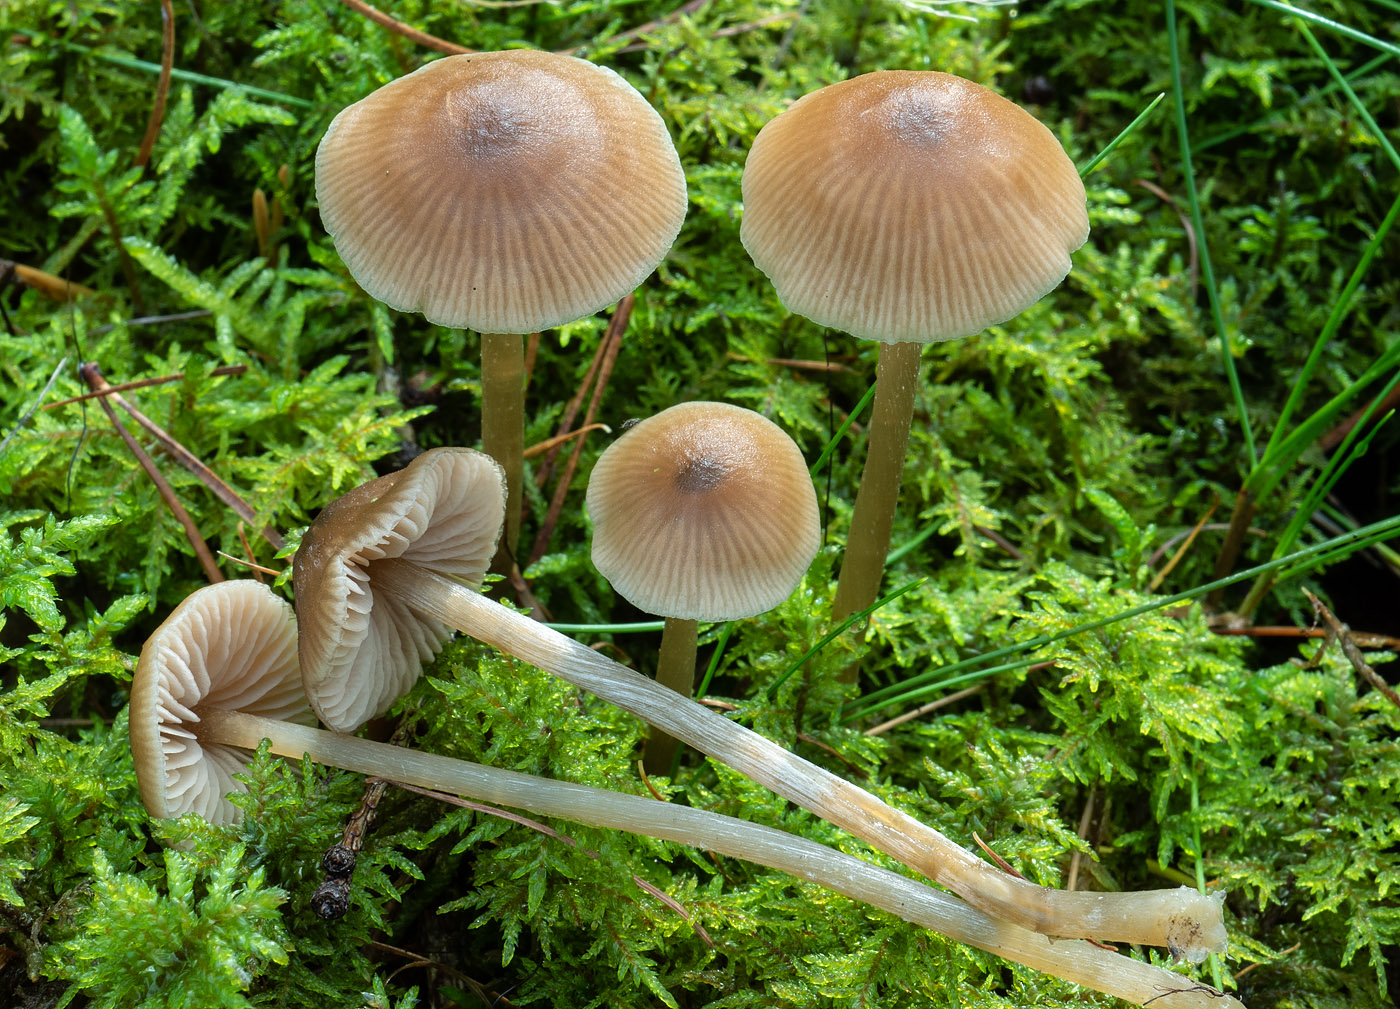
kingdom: Fungi
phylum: Basidiomycota
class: Agaricomycetes
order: Agaricales
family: Entolomataceae
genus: Entoloma
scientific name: Entoloma cetratum
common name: voks-rødblad
